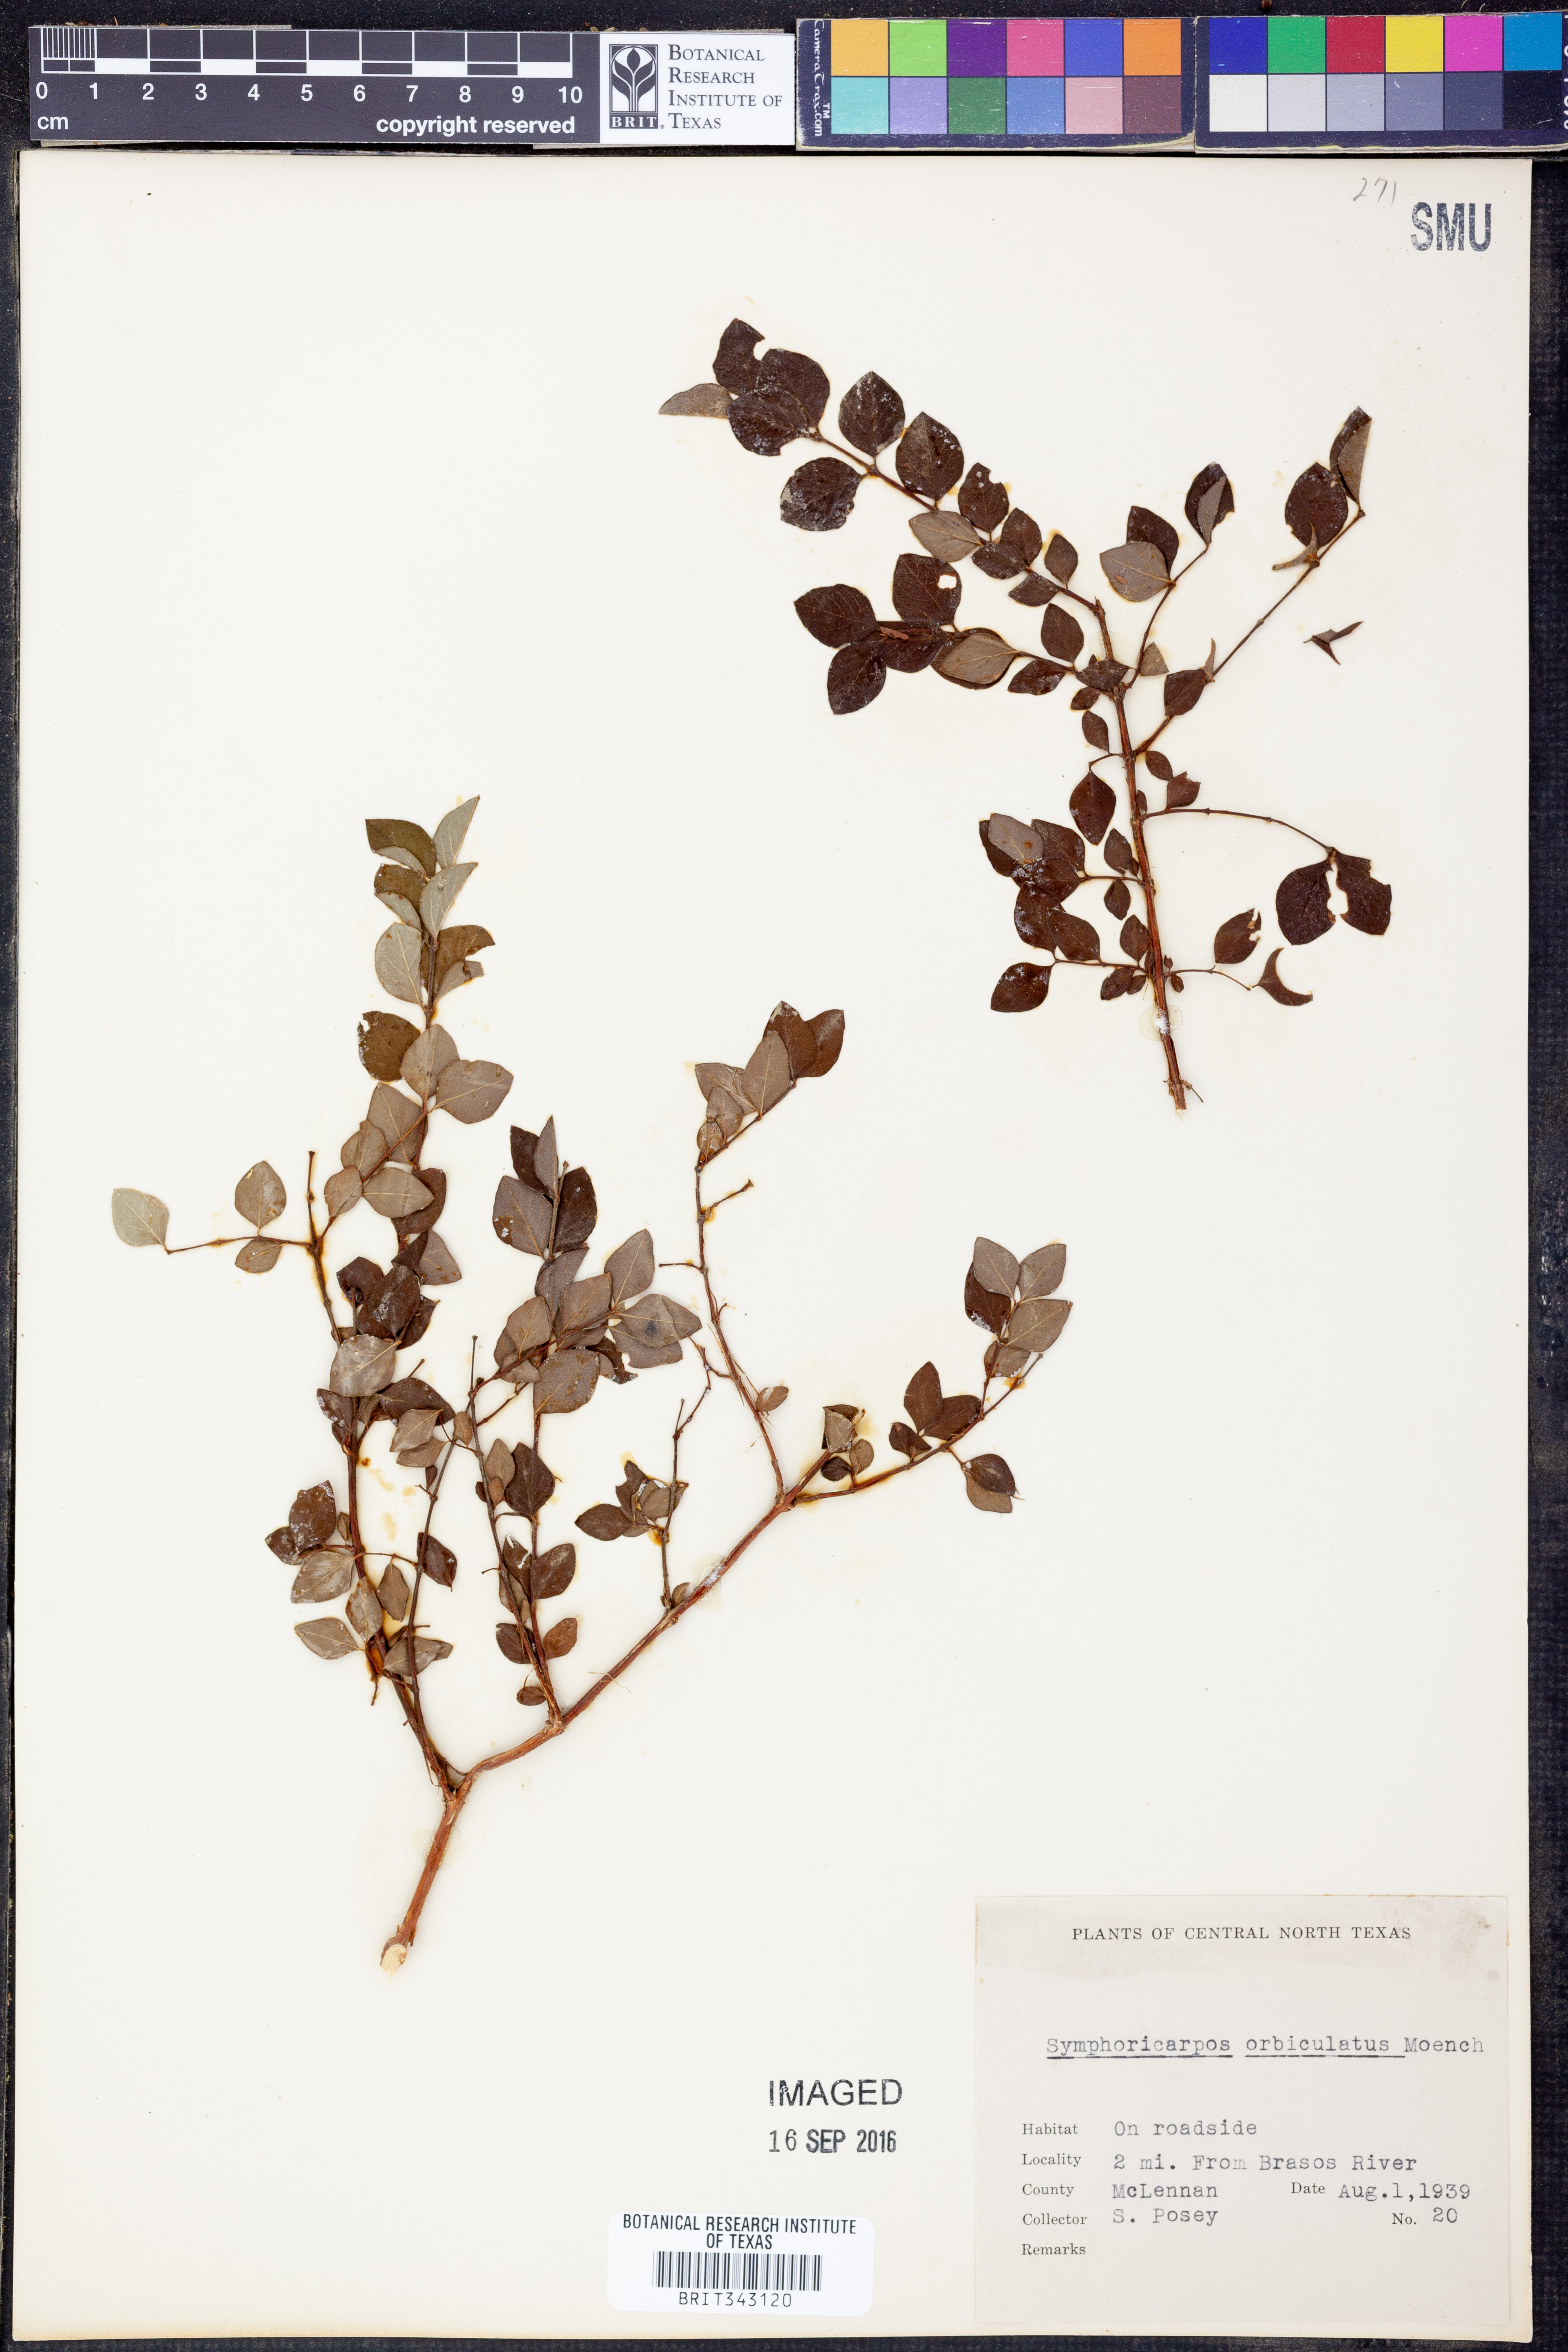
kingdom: Plantae
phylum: Tracheophyta
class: Magnoliopsida
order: Dipsacales
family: Caprifoliaceae
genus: Symphoricarpos
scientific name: Symphoricarpos orbiculatus
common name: Coralberry
